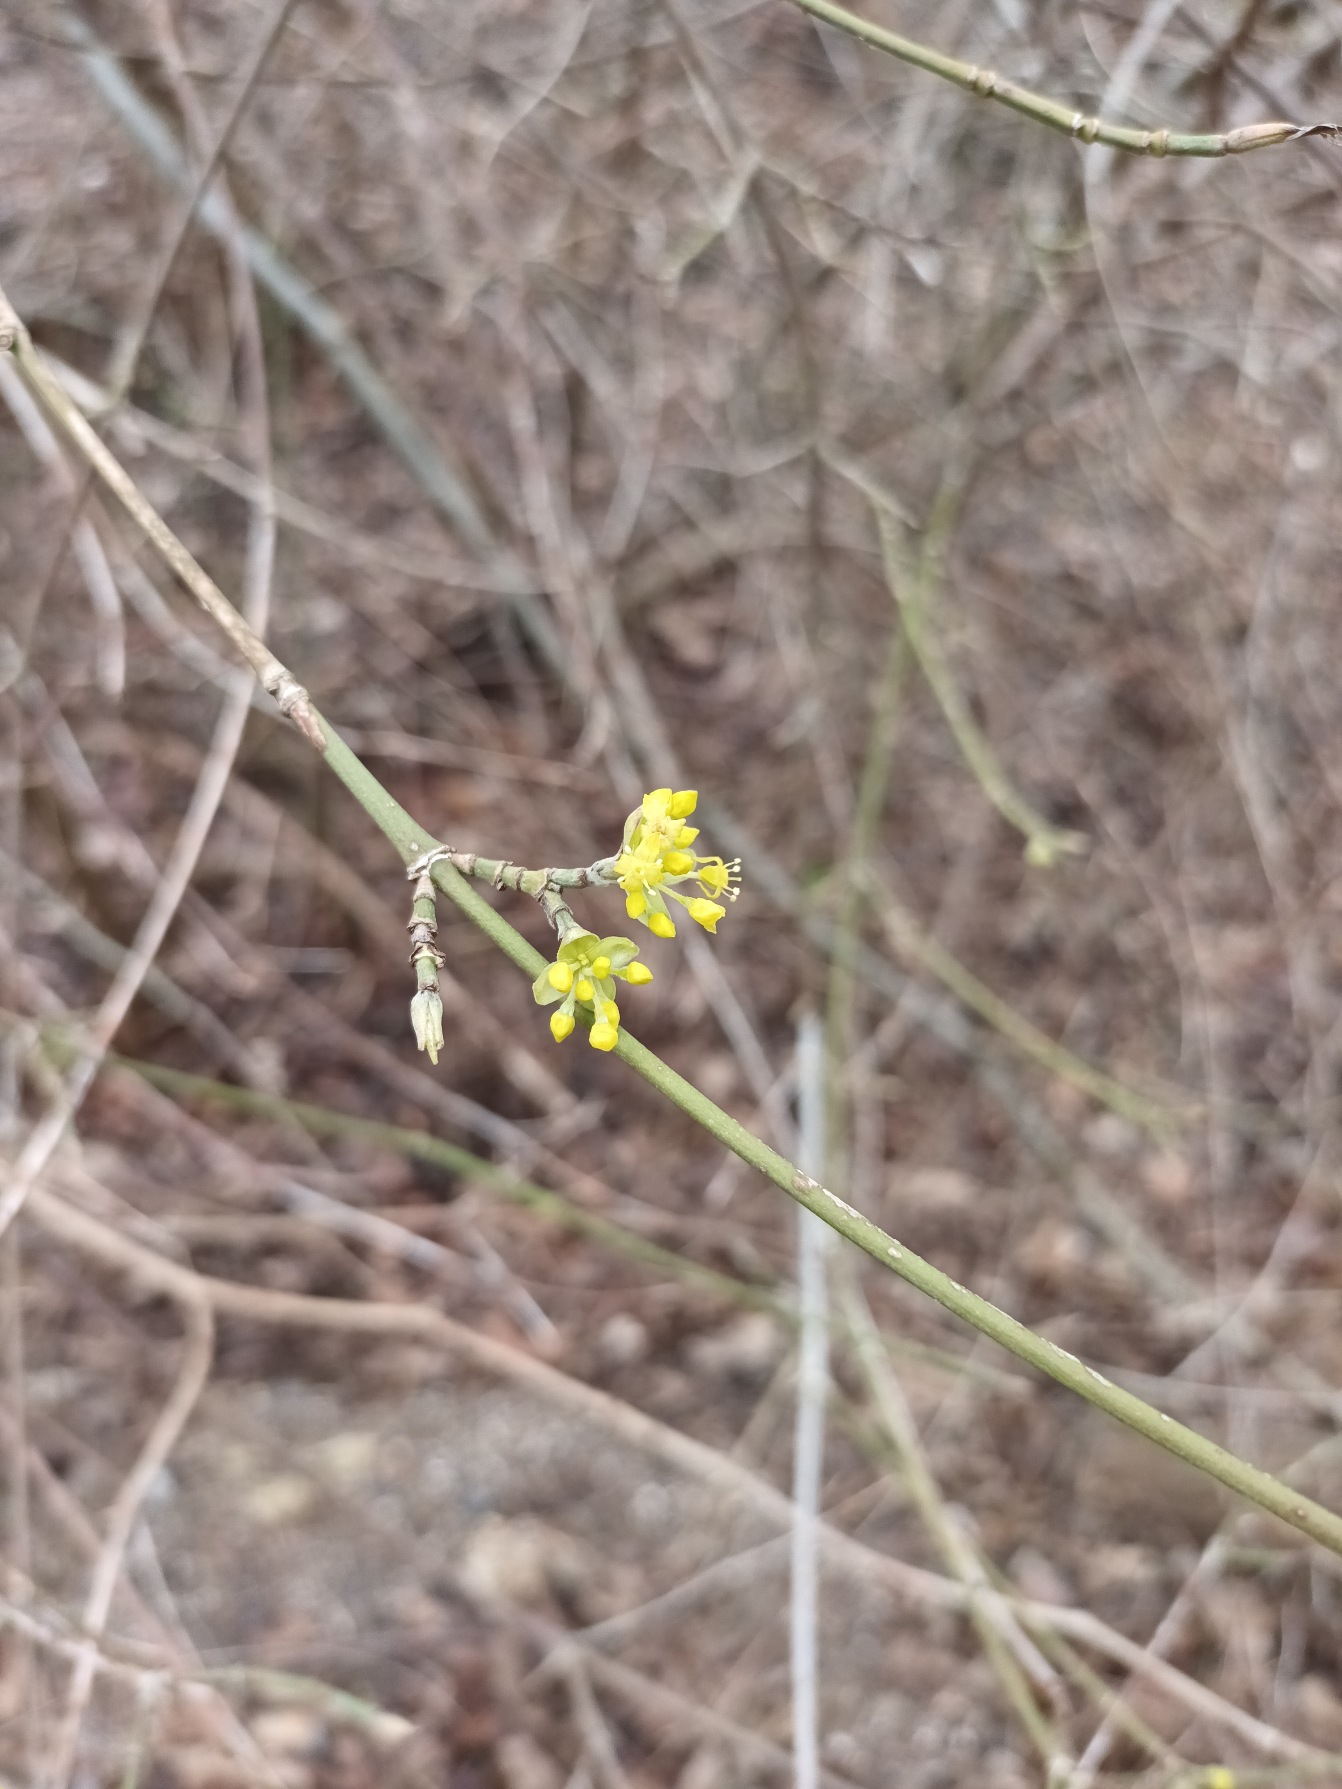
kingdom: Plantae
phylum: Tracheophyta
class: Magnoliopsida
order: Cornales
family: Cornaceae
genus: Cornus
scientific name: Cornus mas
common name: Kirsebær-kornel
